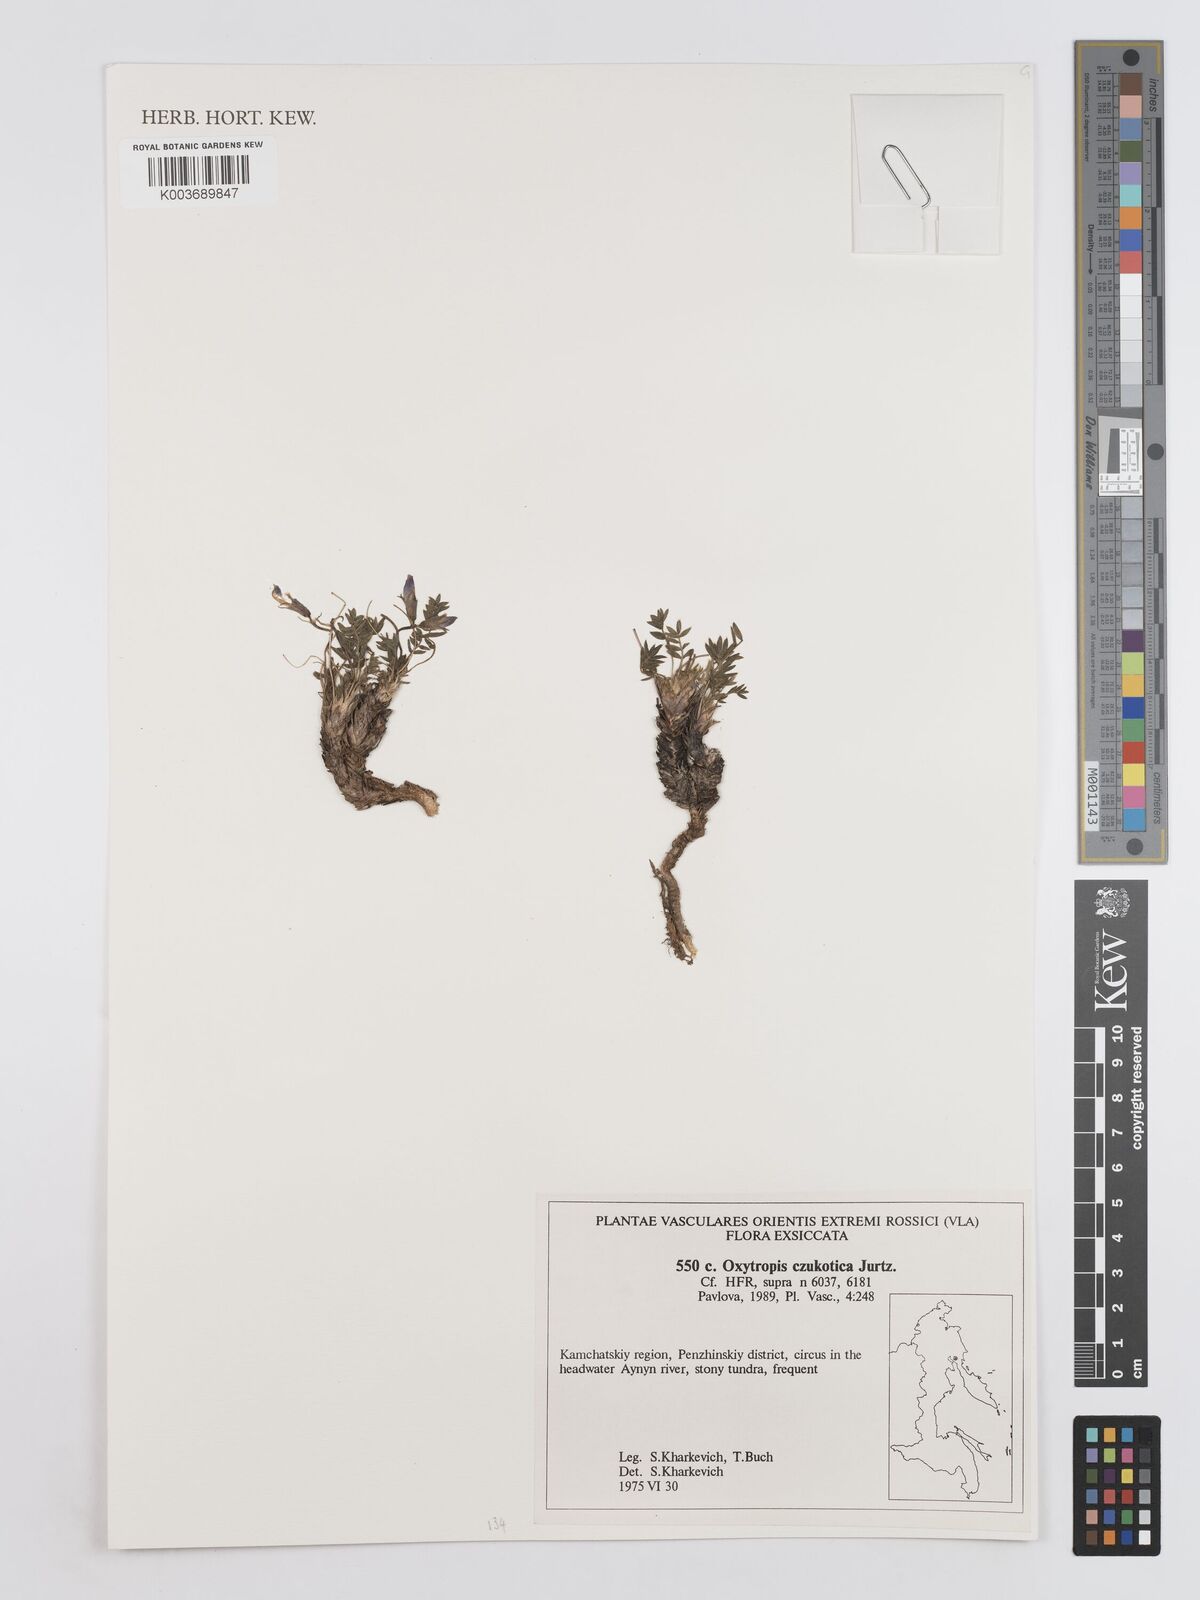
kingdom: Plantae
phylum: Tracheophyta
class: Magnoliopsida
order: Fabales
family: Fabaceae
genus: Oxytropis
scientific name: Oxytropis czukotica
